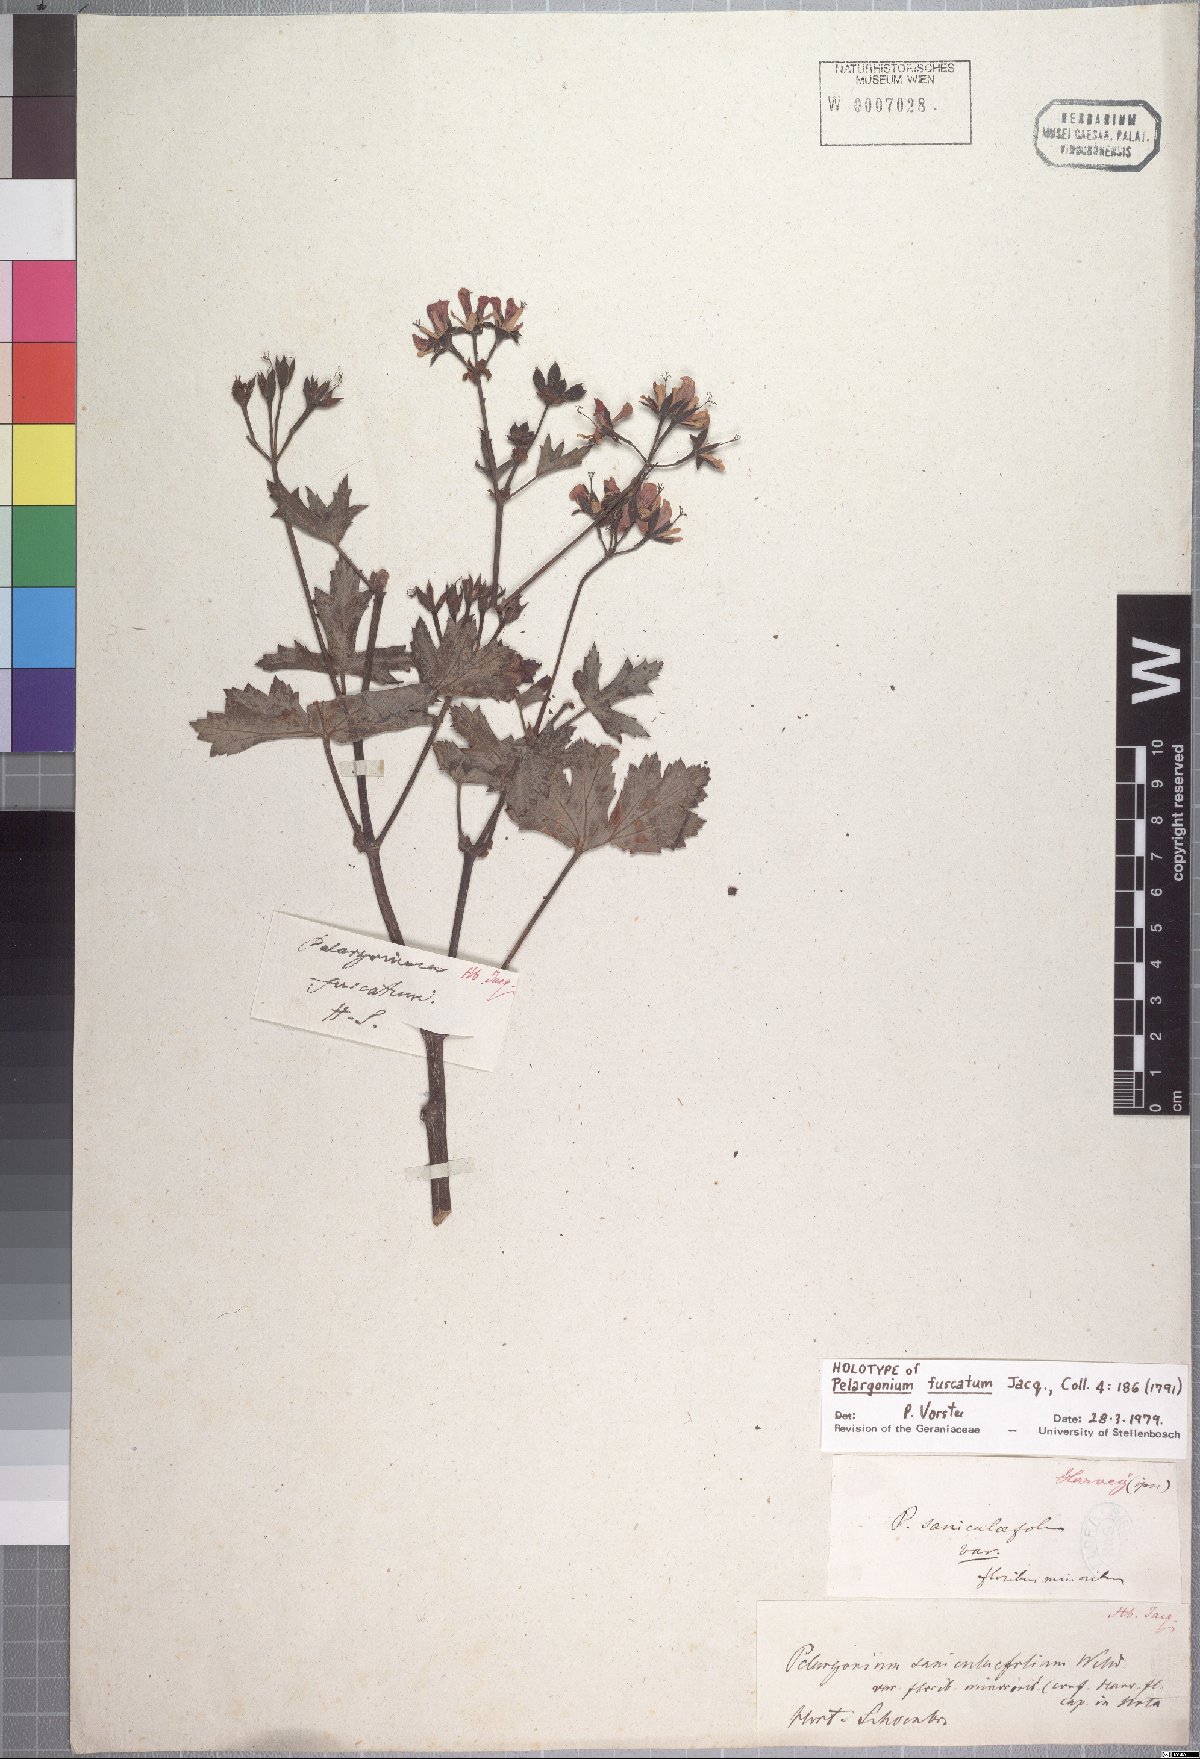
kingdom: Plantae
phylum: Tracheophyta
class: Magnoliopsida
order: Geraniales
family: Geraniaceae
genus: Pelargonium
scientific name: Pelargonium tabulare
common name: Table mountain pelargonium
